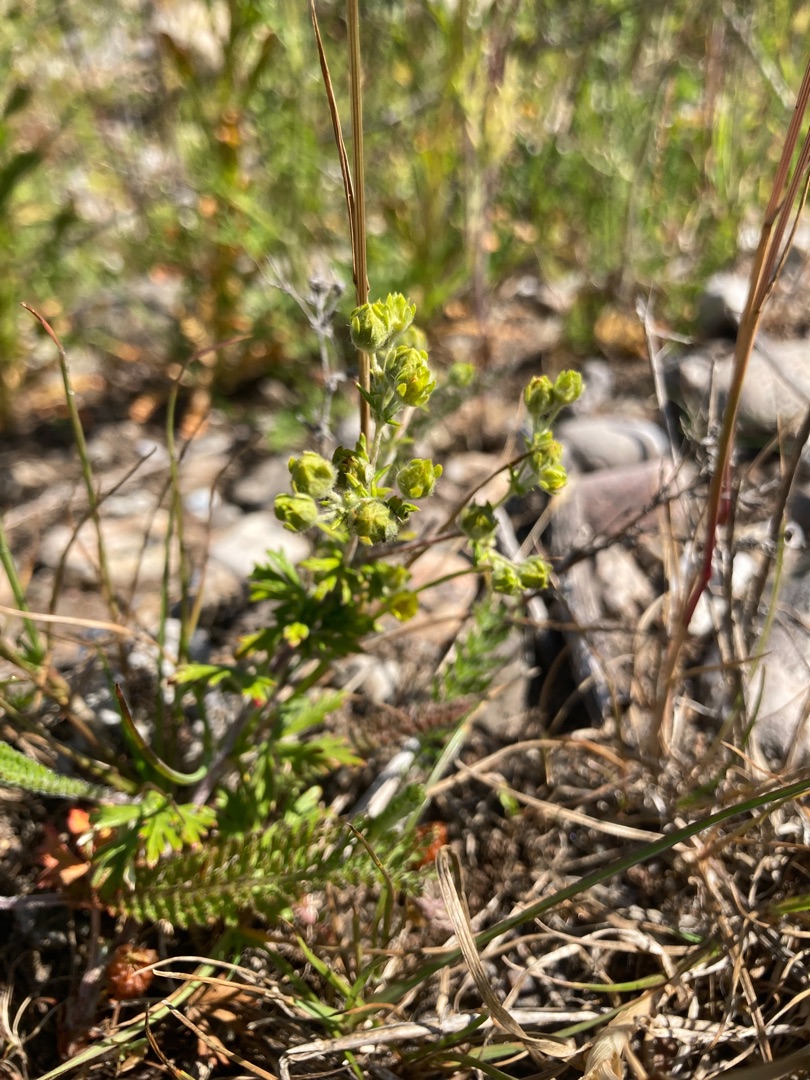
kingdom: Plantae
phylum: Tracheophyta
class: Magnoliopsida
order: Rosales
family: Rosaceae
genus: Potentilla
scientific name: Potentilla argentea
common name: Sølv-potentil
